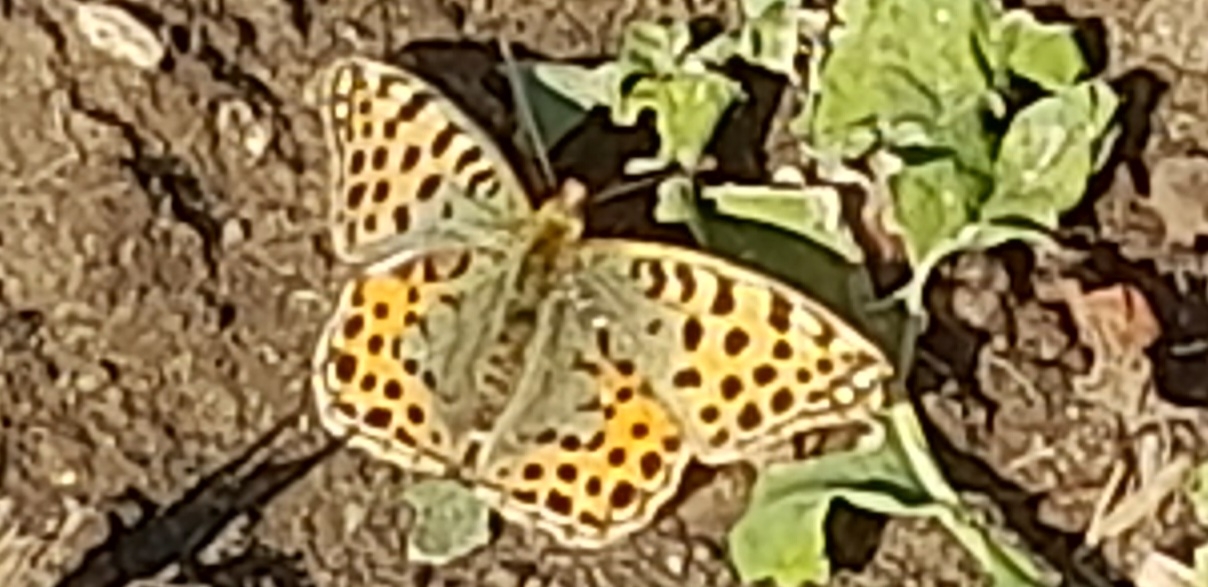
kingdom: Animalia
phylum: Arthropoda
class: Insecta
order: Lepidoptera
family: Nymphalidae
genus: Issoria
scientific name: Issoria lathonia
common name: Storplettet perlemorsommerfugl
